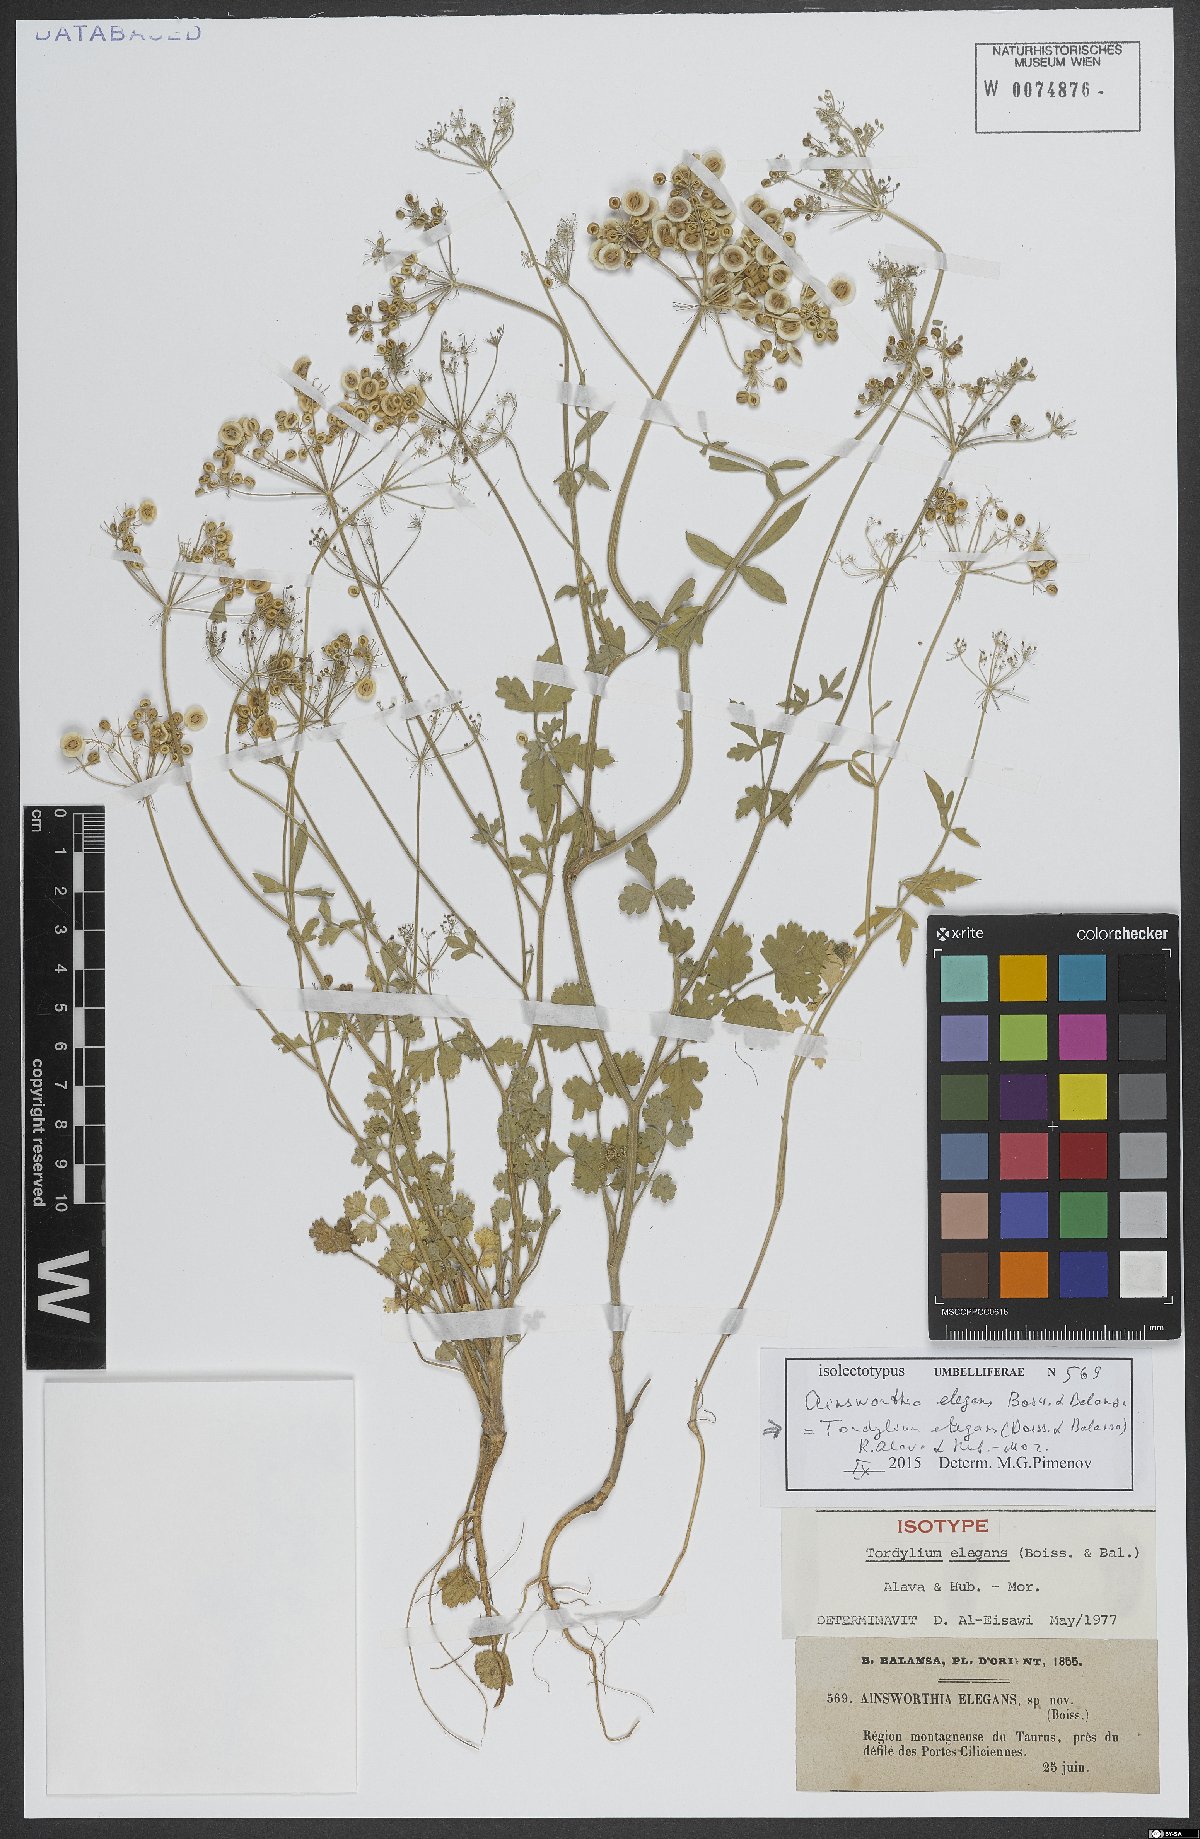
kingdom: Plantae
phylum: Tracheophyta
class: Magnoliopsida
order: Apiales
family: Apiaceae
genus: Ainsworthia
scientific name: Ainsworthia elegans
